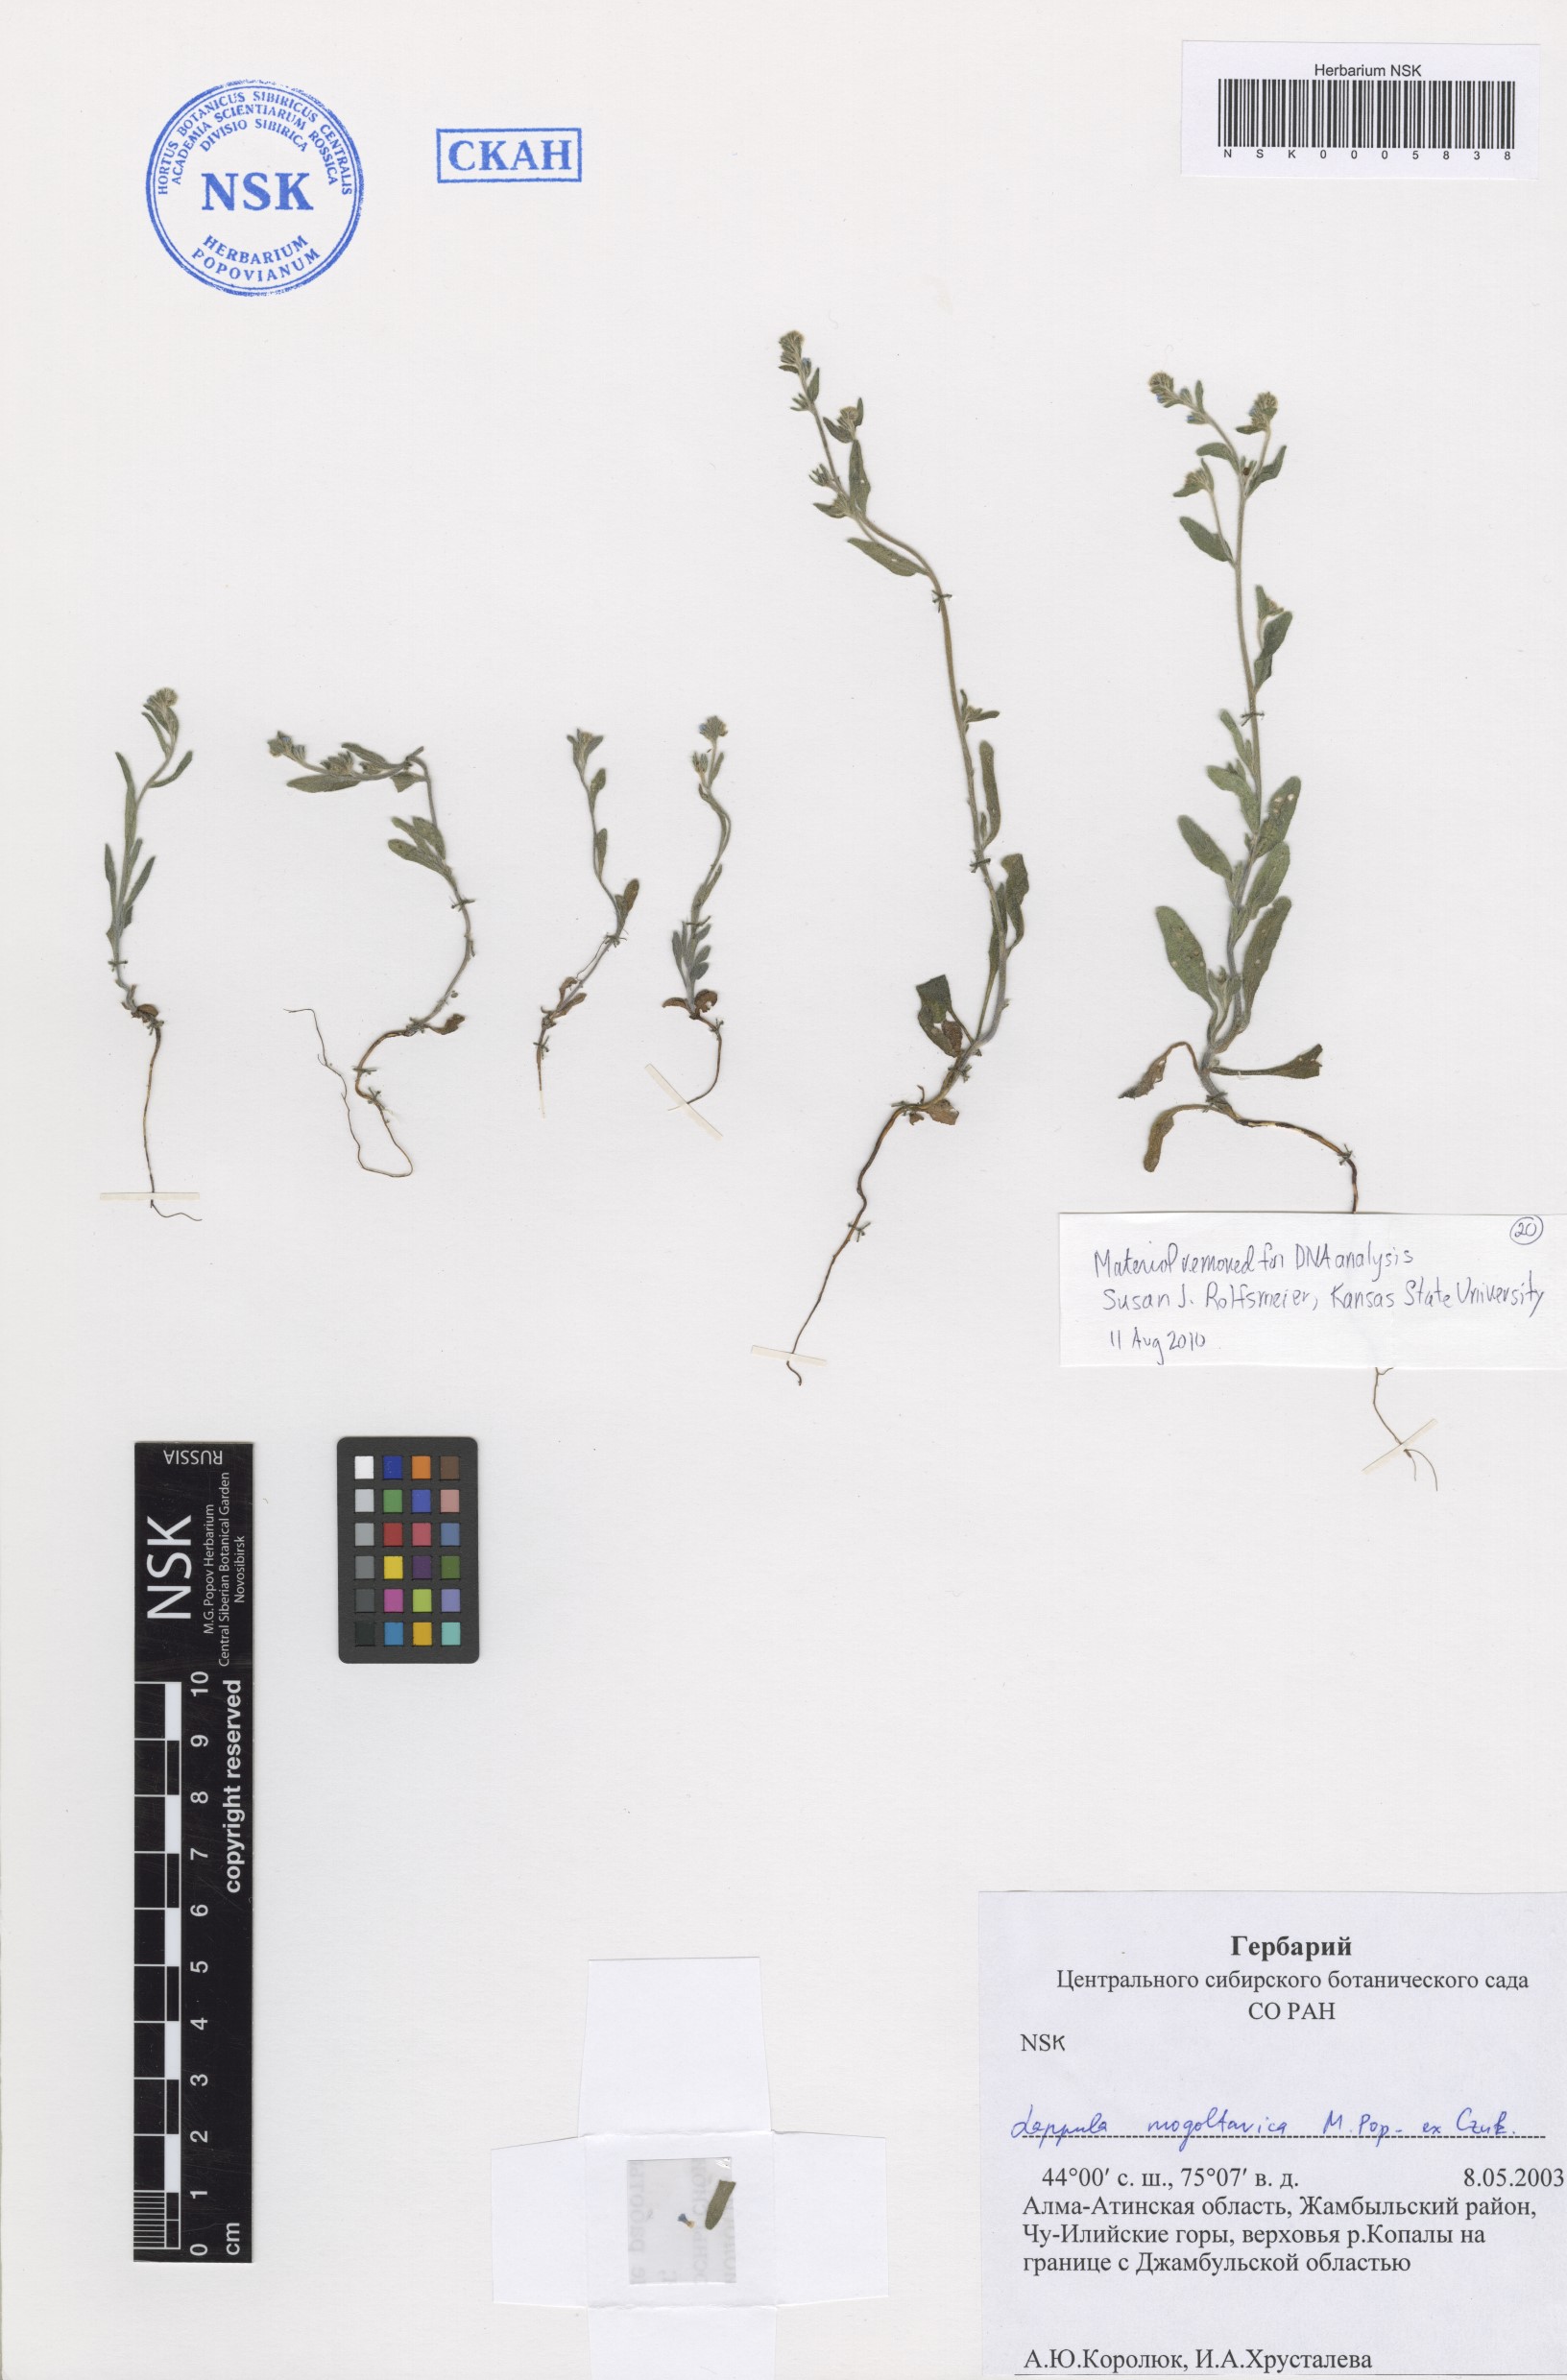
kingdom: Plantae
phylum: Tracheophyta
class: Magnoliopsida
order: Boraginales
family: Boraginaceae
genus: Lappula
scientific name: Lappula mogoltavica
